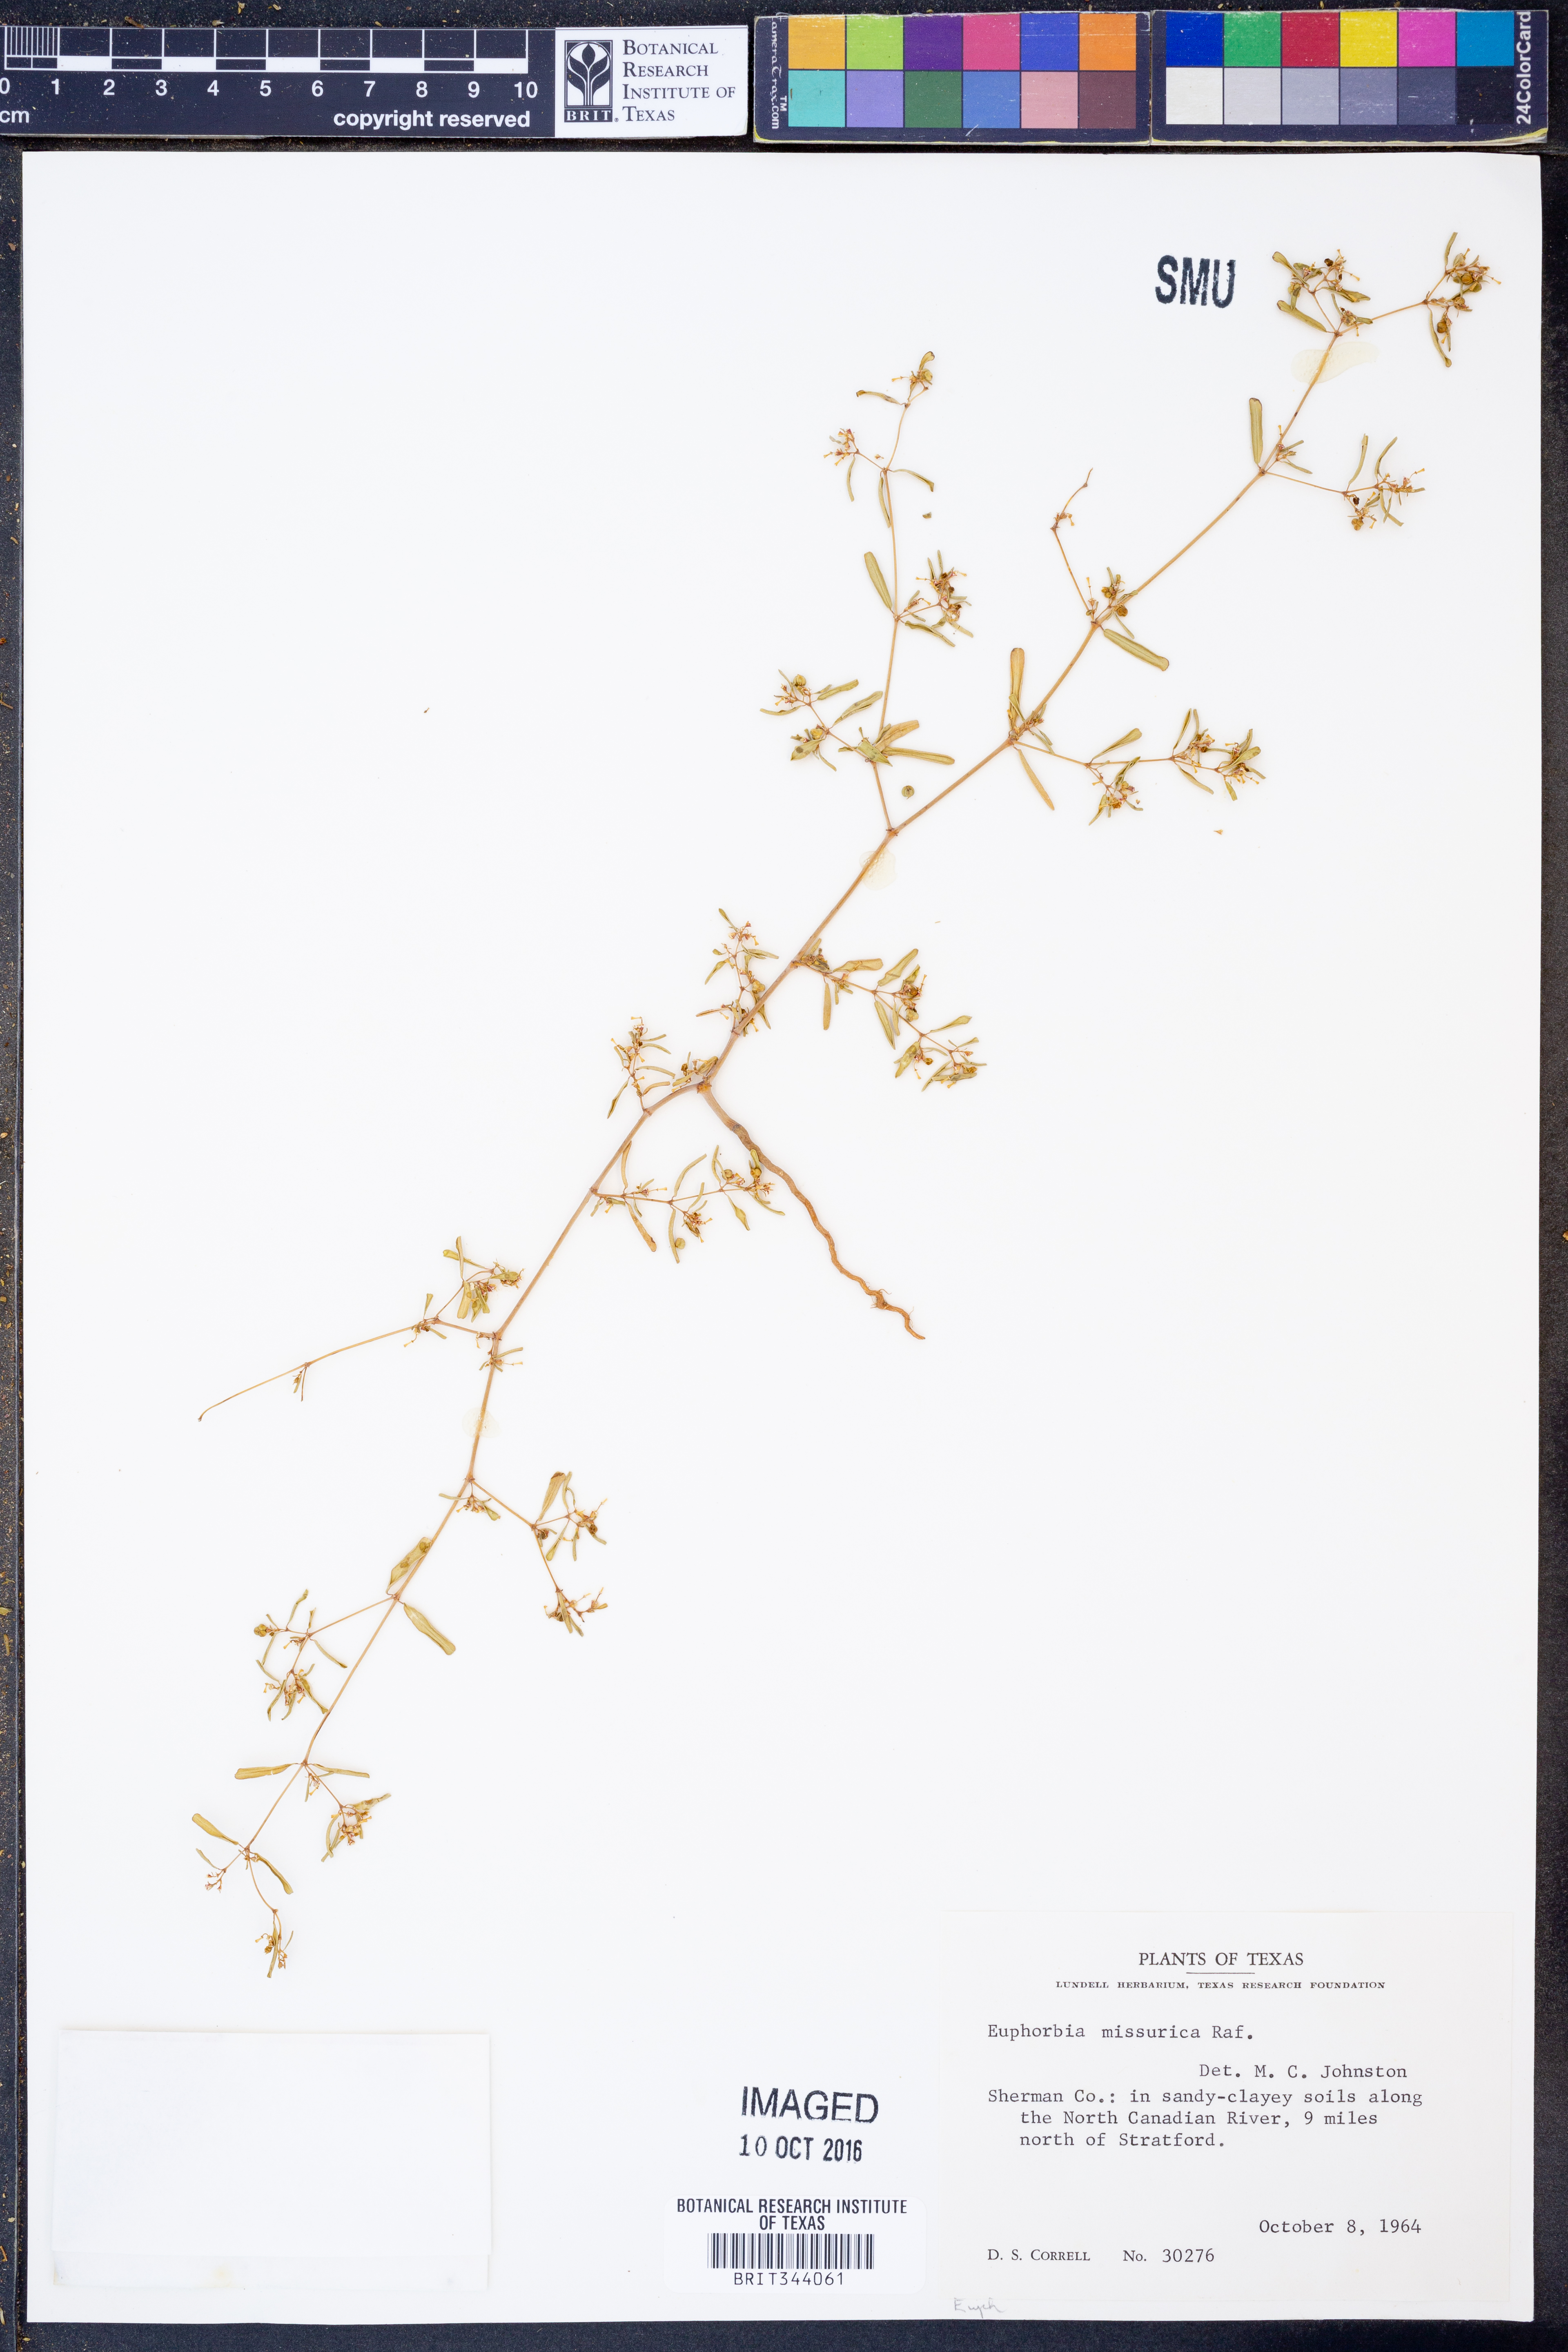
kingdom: Plantae
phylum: Tracheophyta
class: Magnoliopsida
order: Malpighiales
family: Euphorbiaceae
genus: Euphorbia
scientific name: Euphorbia missurica
